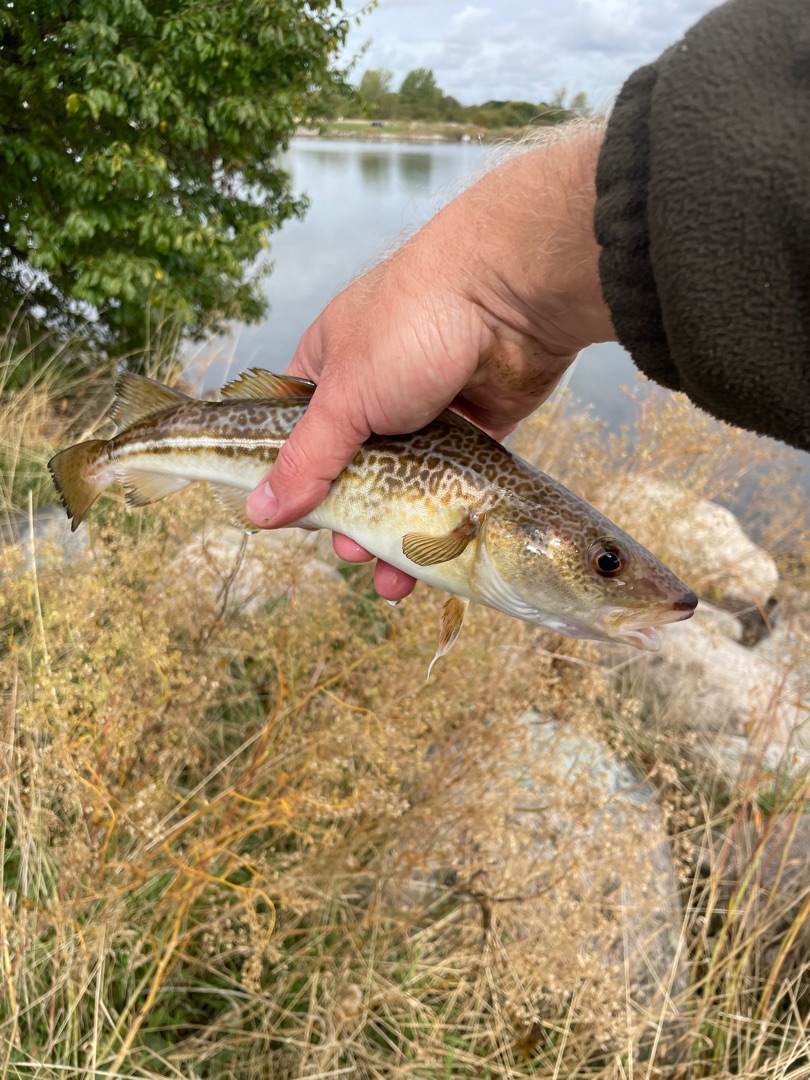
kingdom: Animalia
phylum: Chordata
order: Gadiformes
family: Gadidae
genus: Gadus
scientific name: Gadus morhua
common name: Torsk
